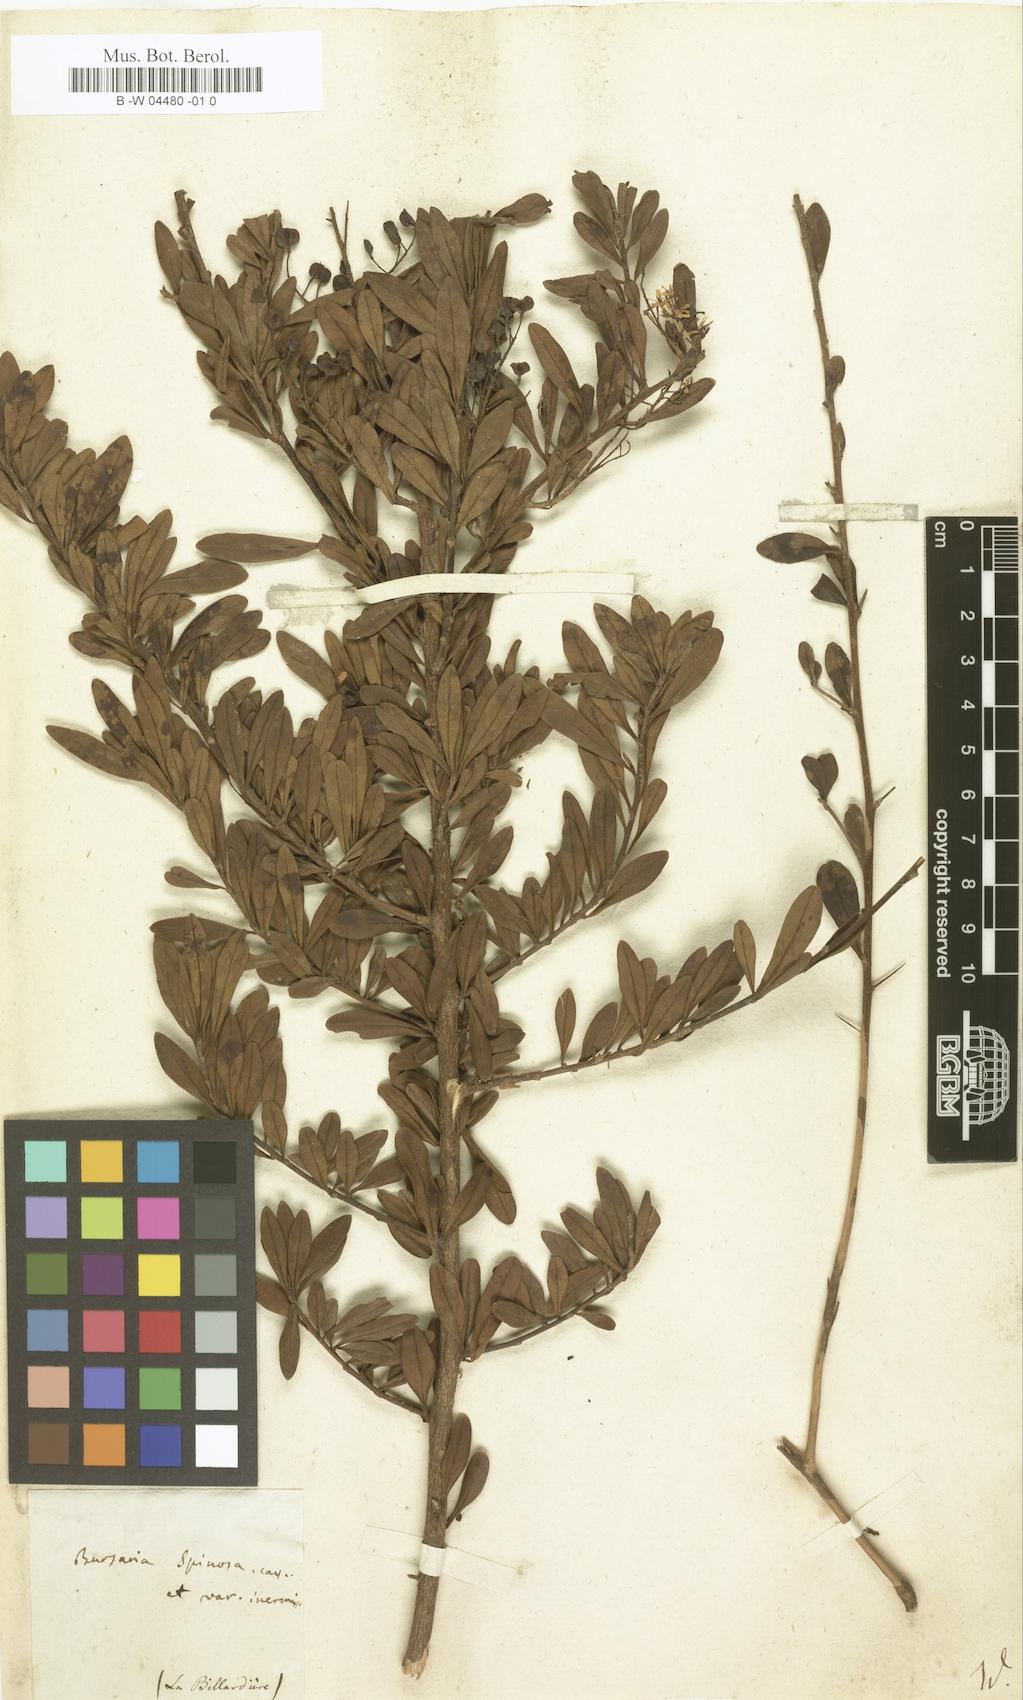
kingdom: Plantae
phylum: Tracheophyta
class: Magnoliopsida
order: Apiales
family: Pittosporaceae
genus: Bursaria
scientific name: Bursaria spinosa
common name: Australian blackthorn
